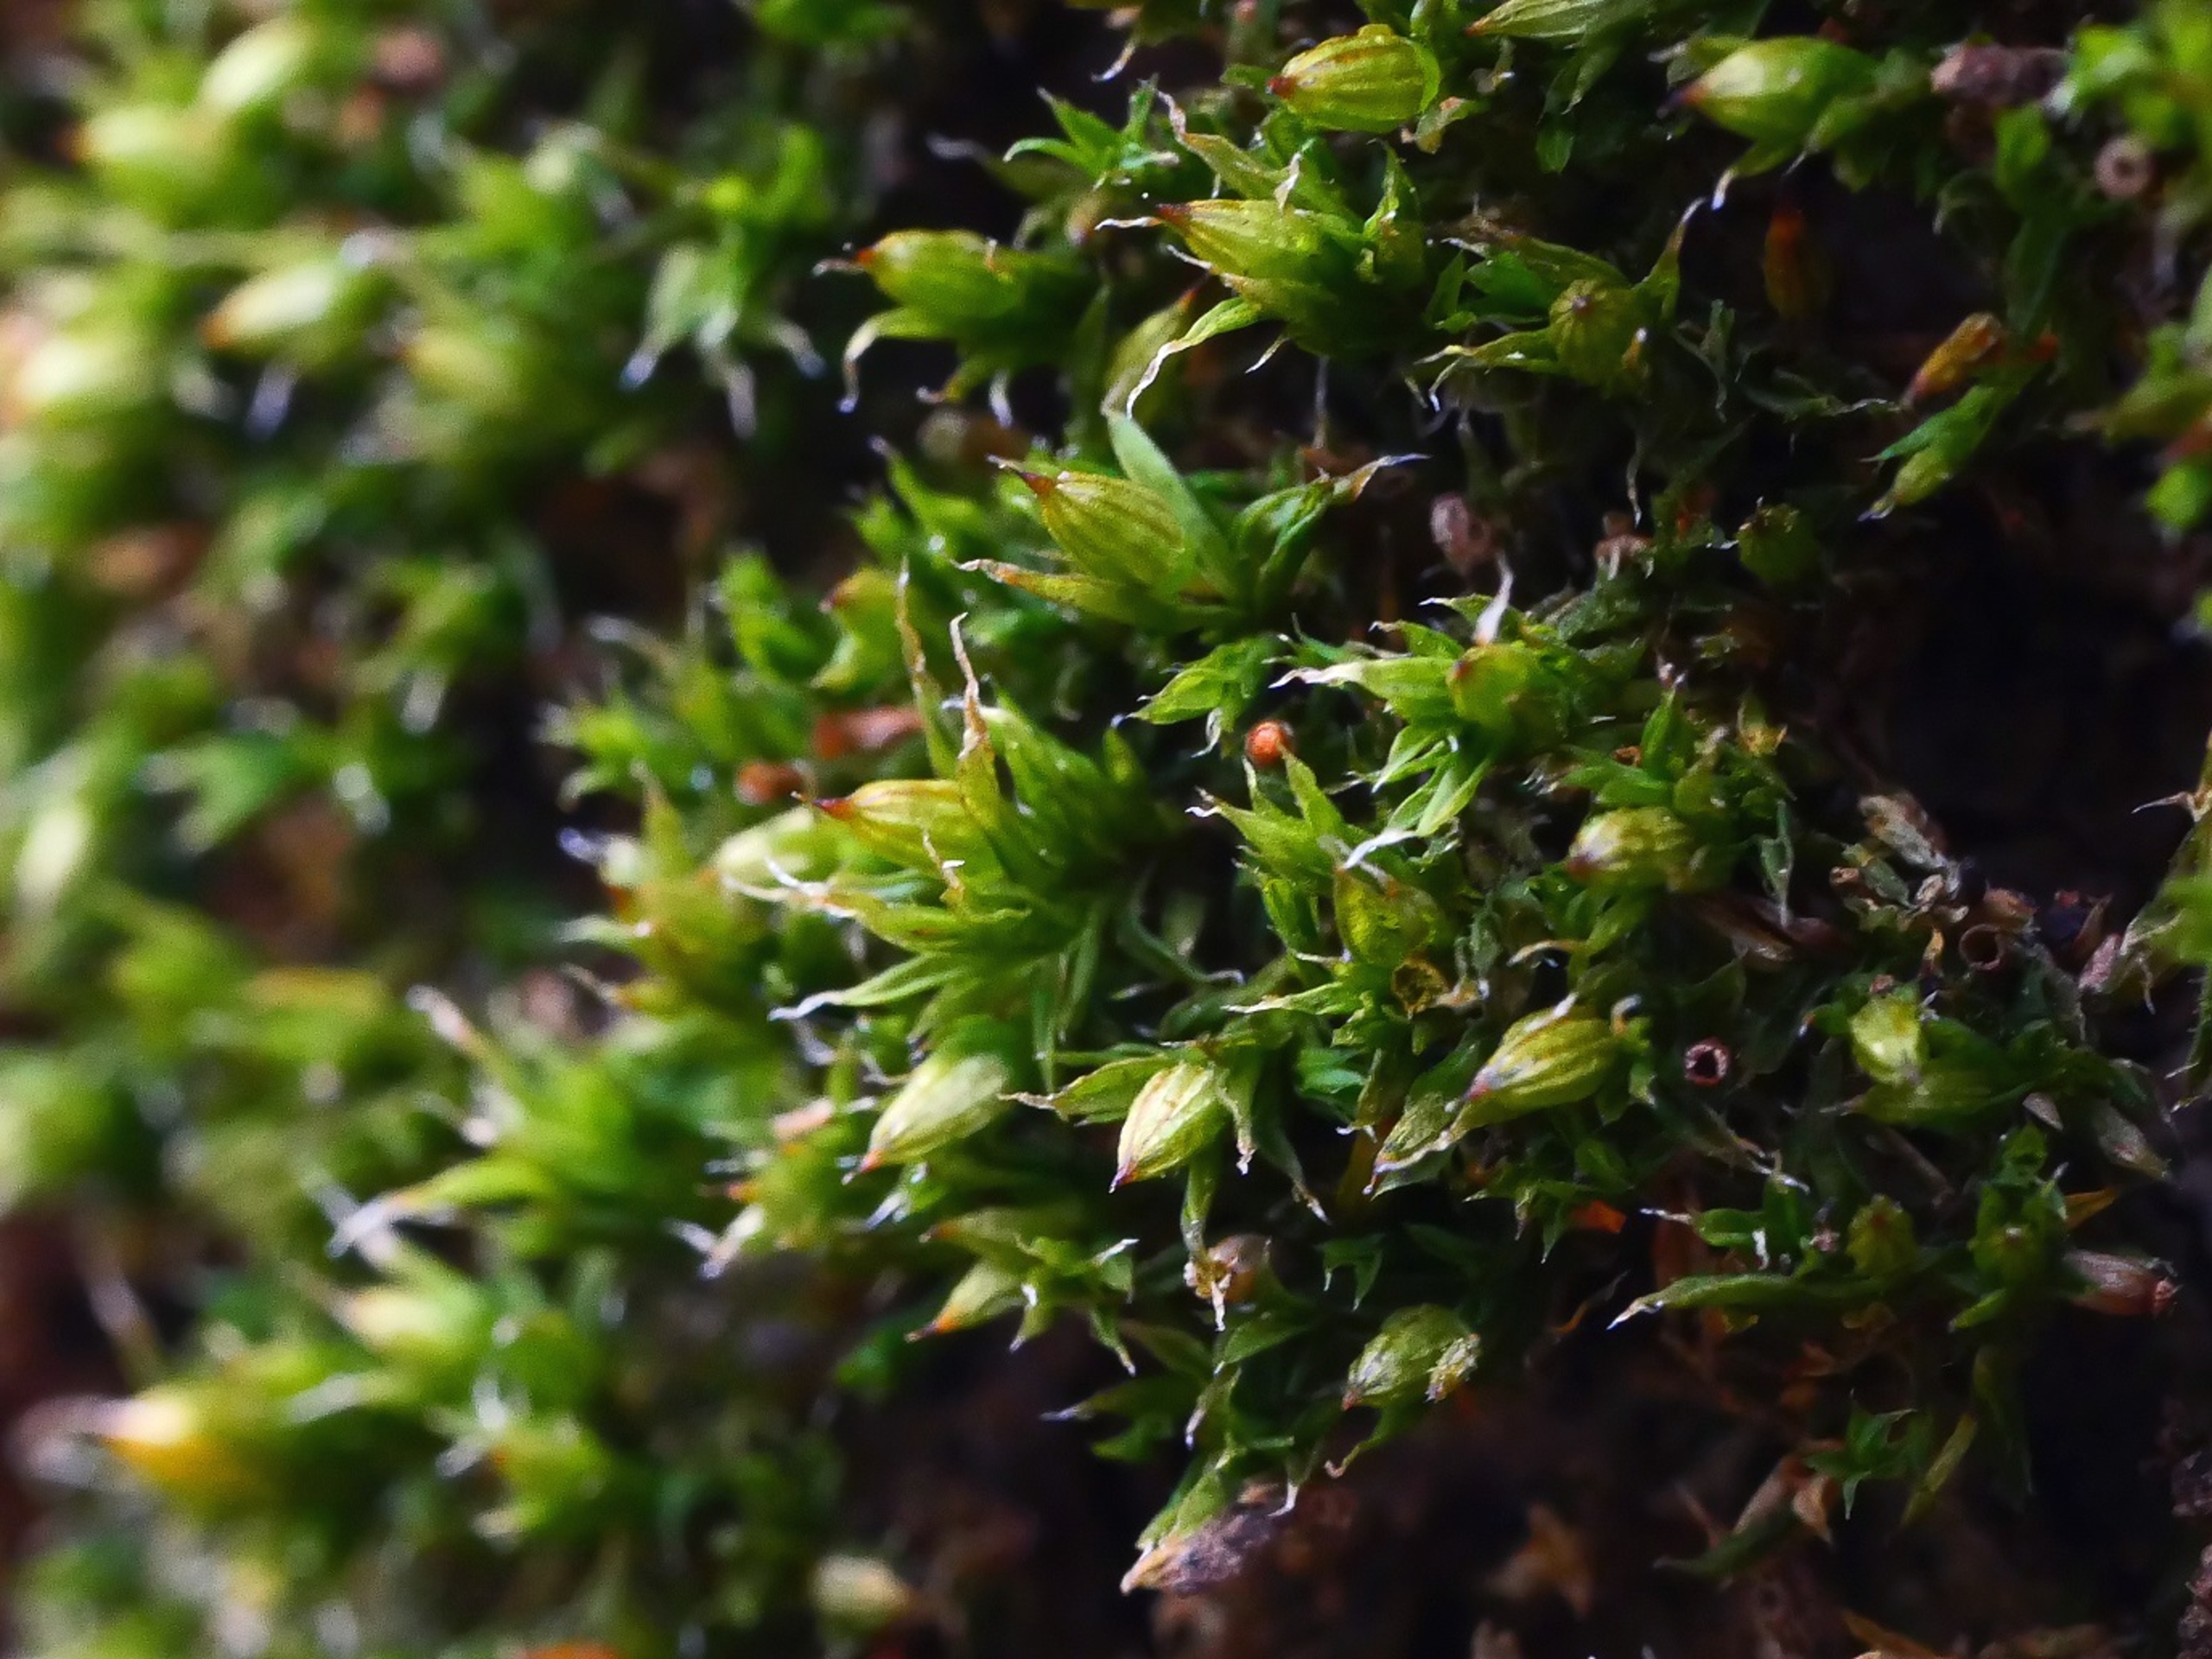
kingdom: Plantae
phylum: Bryophyta
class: Bryopsida
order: Orthotrichales
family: Orthotrichaceae
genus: Orthotrichum
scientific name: Orthotrichum diaphanum
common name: Hårspidset furehætte
